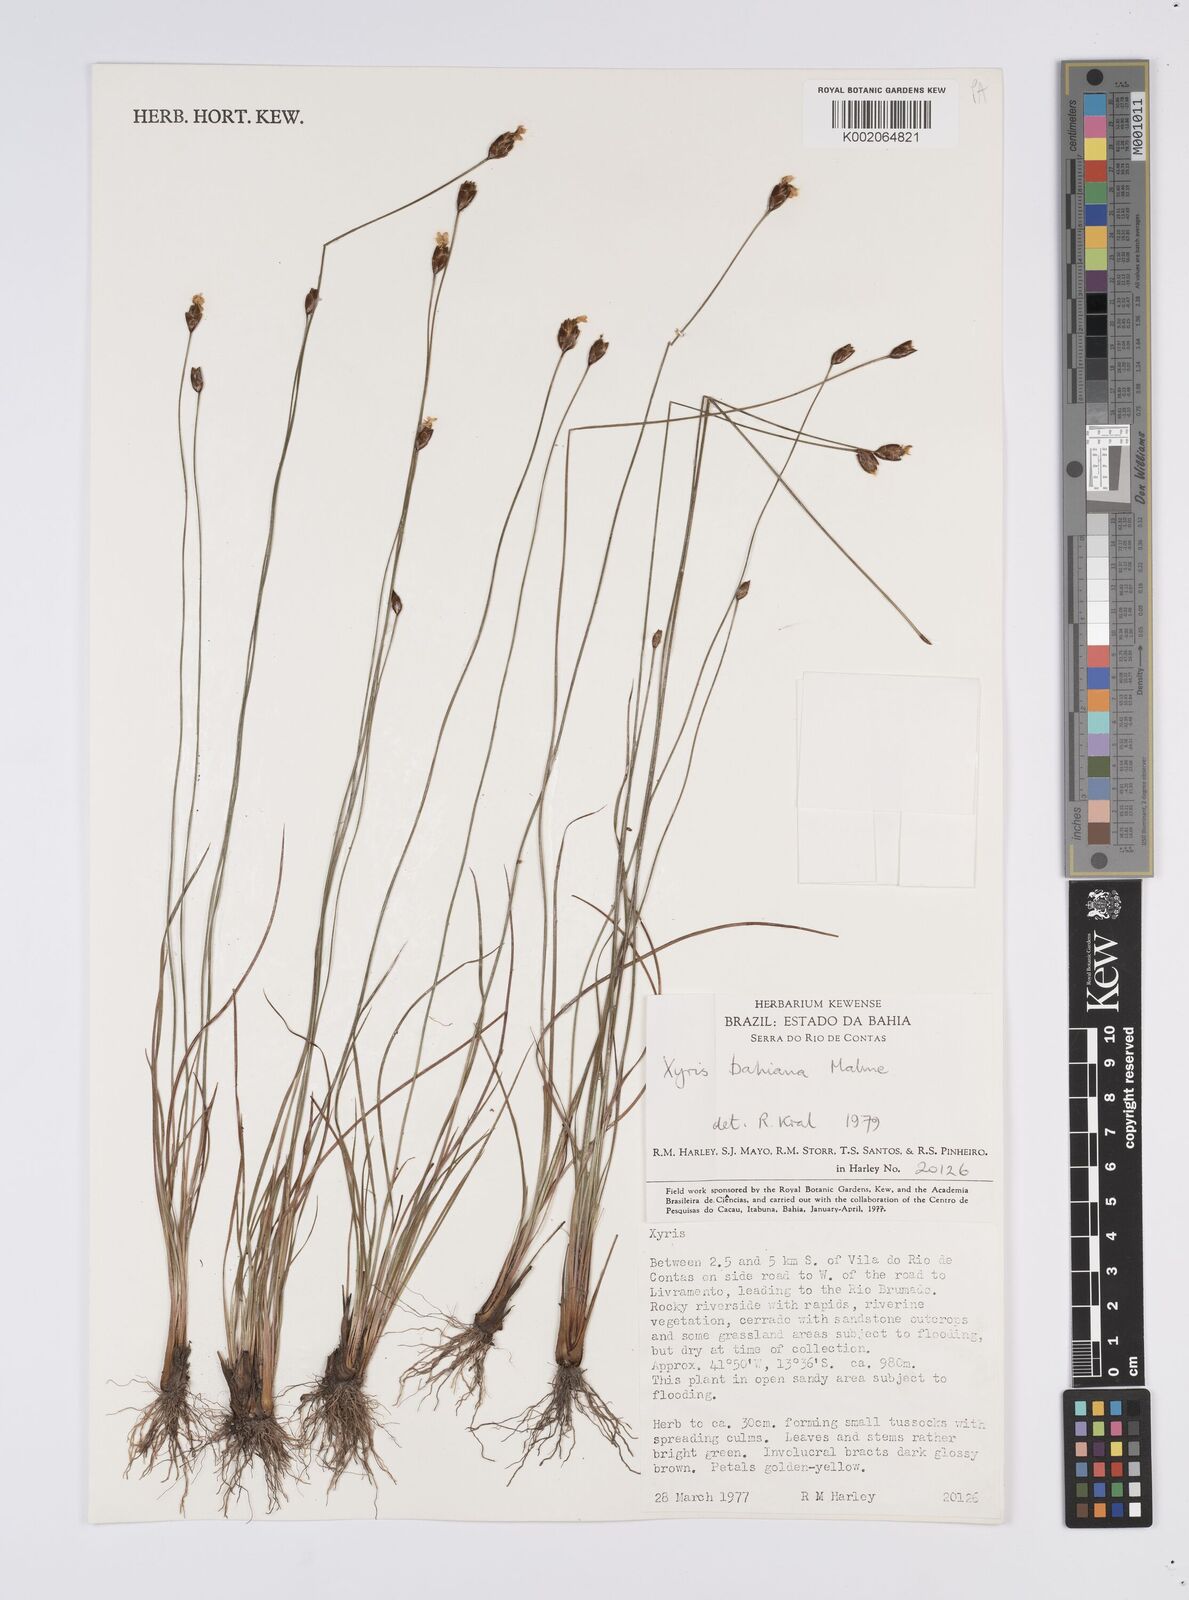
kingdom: Plantae
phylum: Tracheophyta
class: Liliopsida
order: Poales
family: Xyridaceae
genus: Xyris
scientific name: Xyris bahiana
